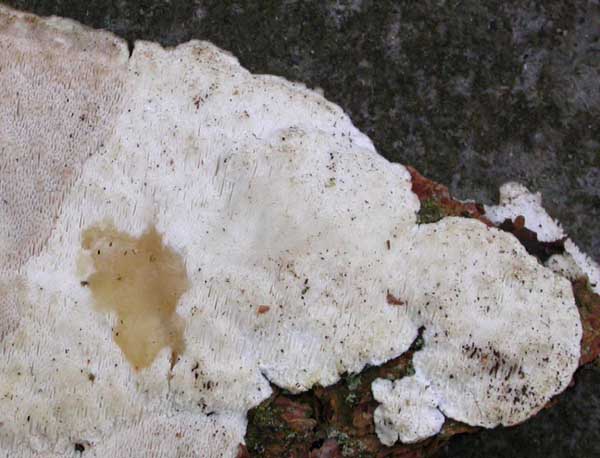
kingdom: Fungi
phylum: Basidiomycota
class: Agaricomycetes
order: Polyporales
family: Gelatoporiaceae
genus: Cinereomyces
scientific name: Cinereomyces lindbladii
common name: almindelig gråporesvamp
